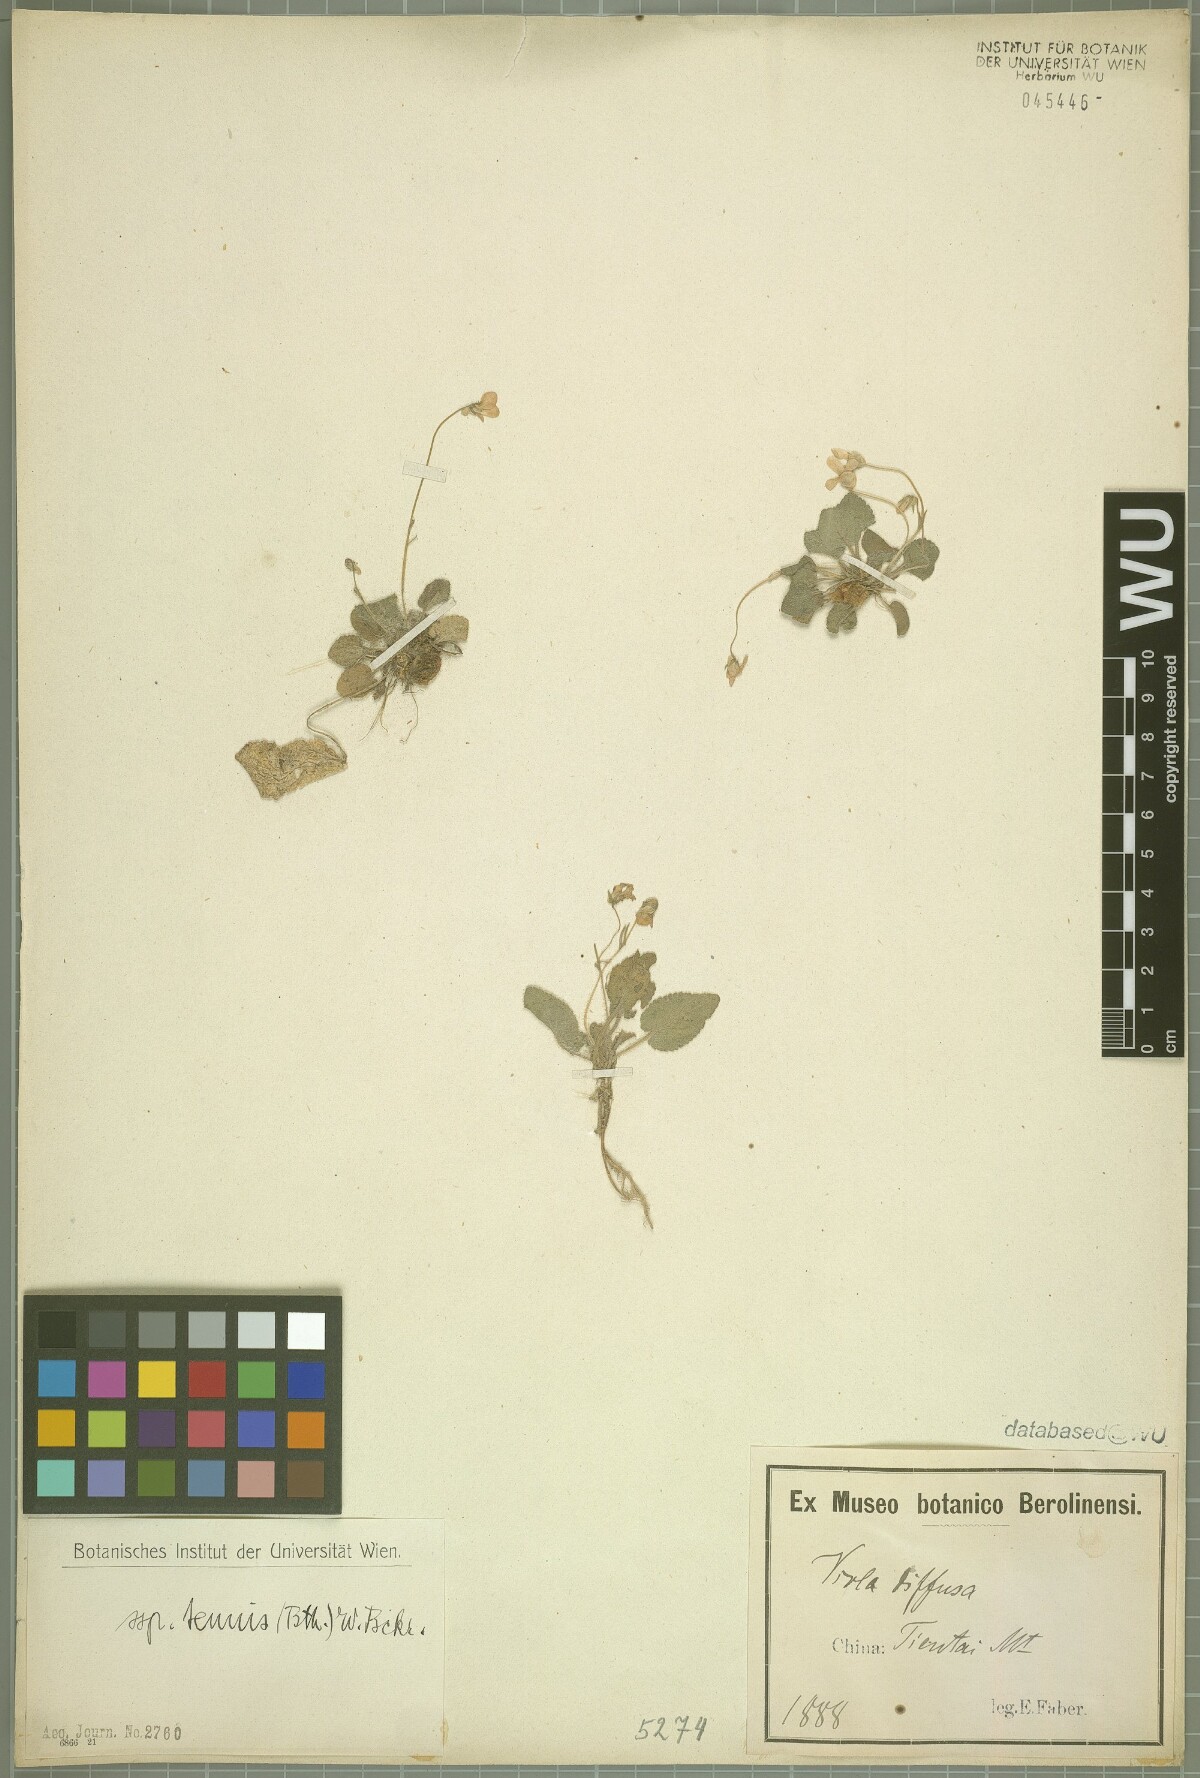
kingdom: Plantae
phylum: Tracheophyta
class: Magnoliopsida
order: Malpighiales
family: Violaceae
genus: Viola
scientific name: Viola diffusa
